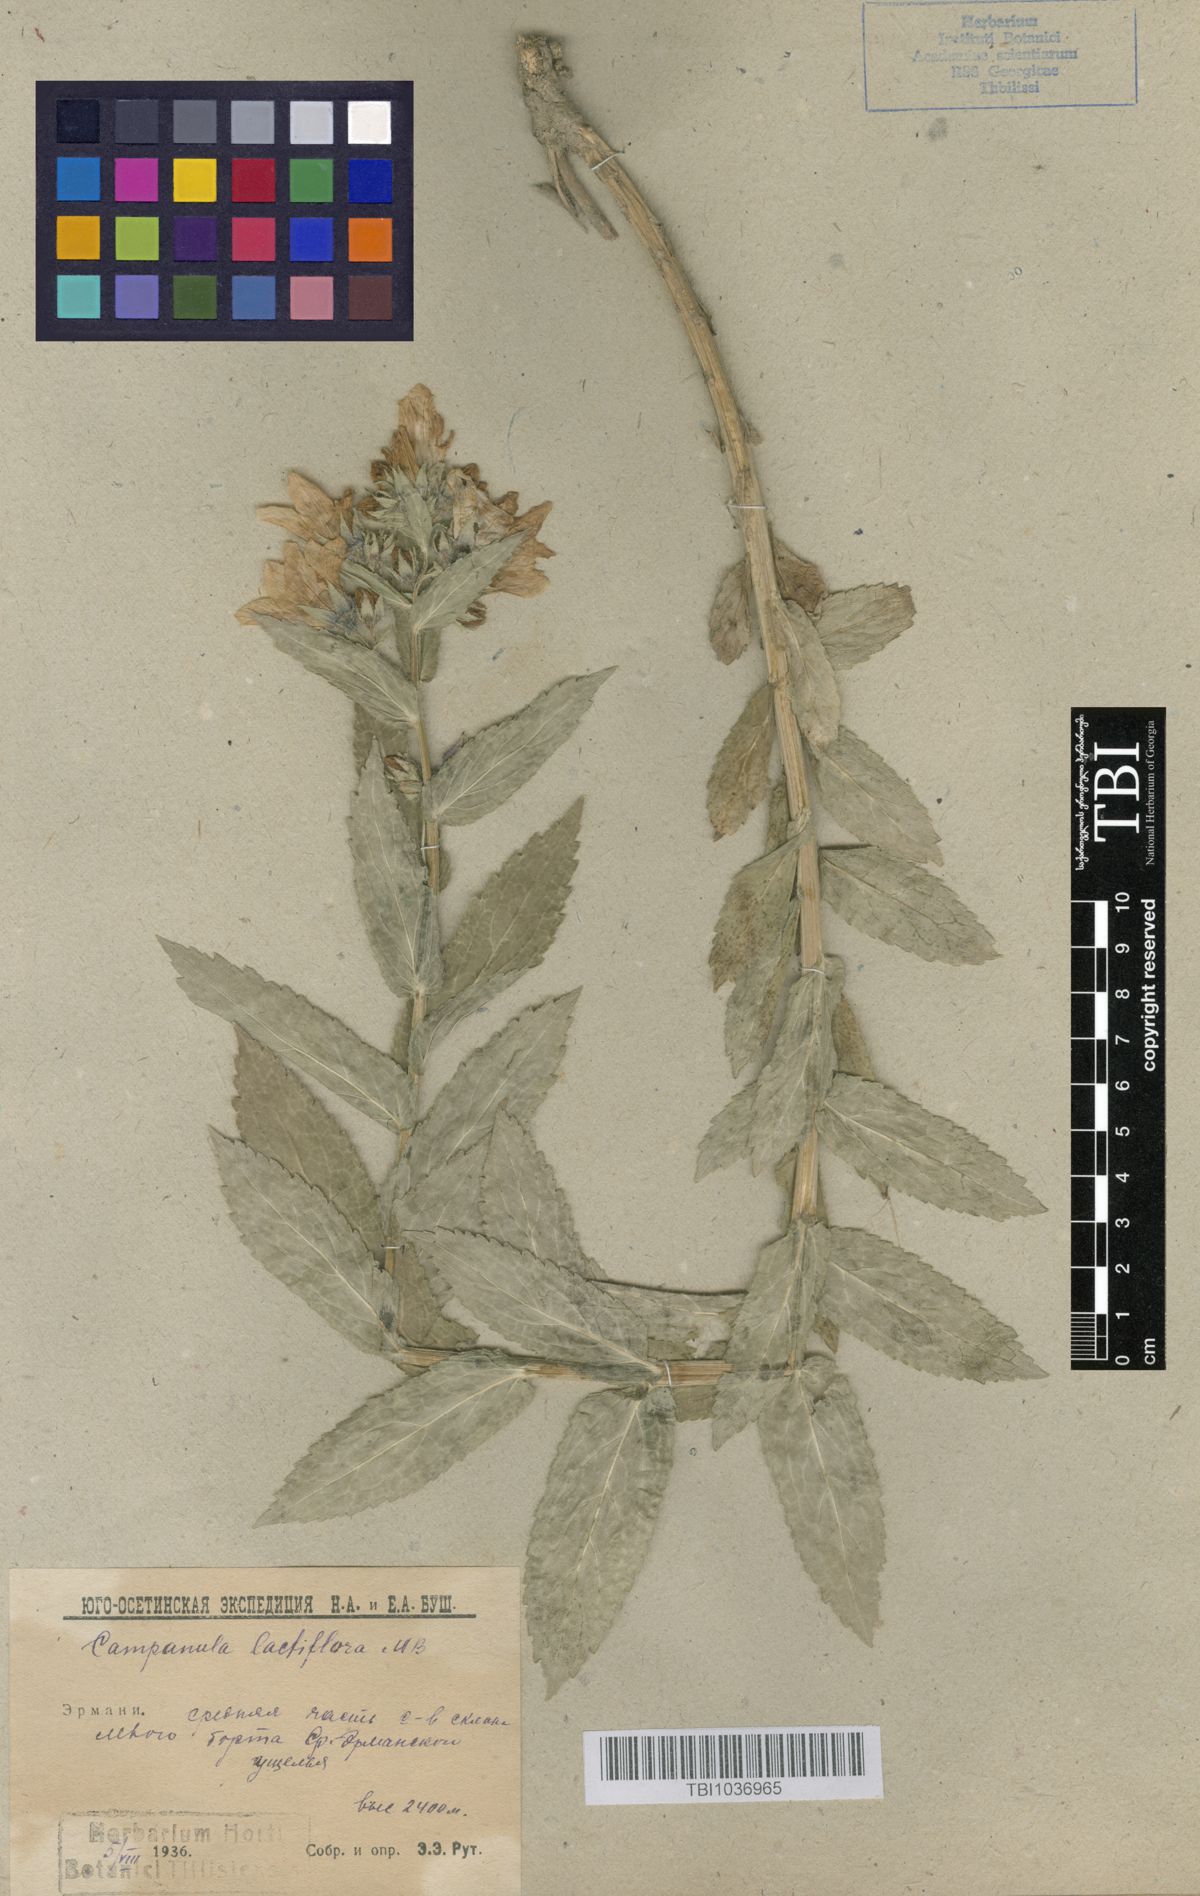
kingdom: Plantae
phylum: Tracheophyta
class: Magnoliopsida
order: Asterales
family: Campanulaceae
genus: Campanula
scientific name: Campanula lactiflora
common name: Milky bellflower
